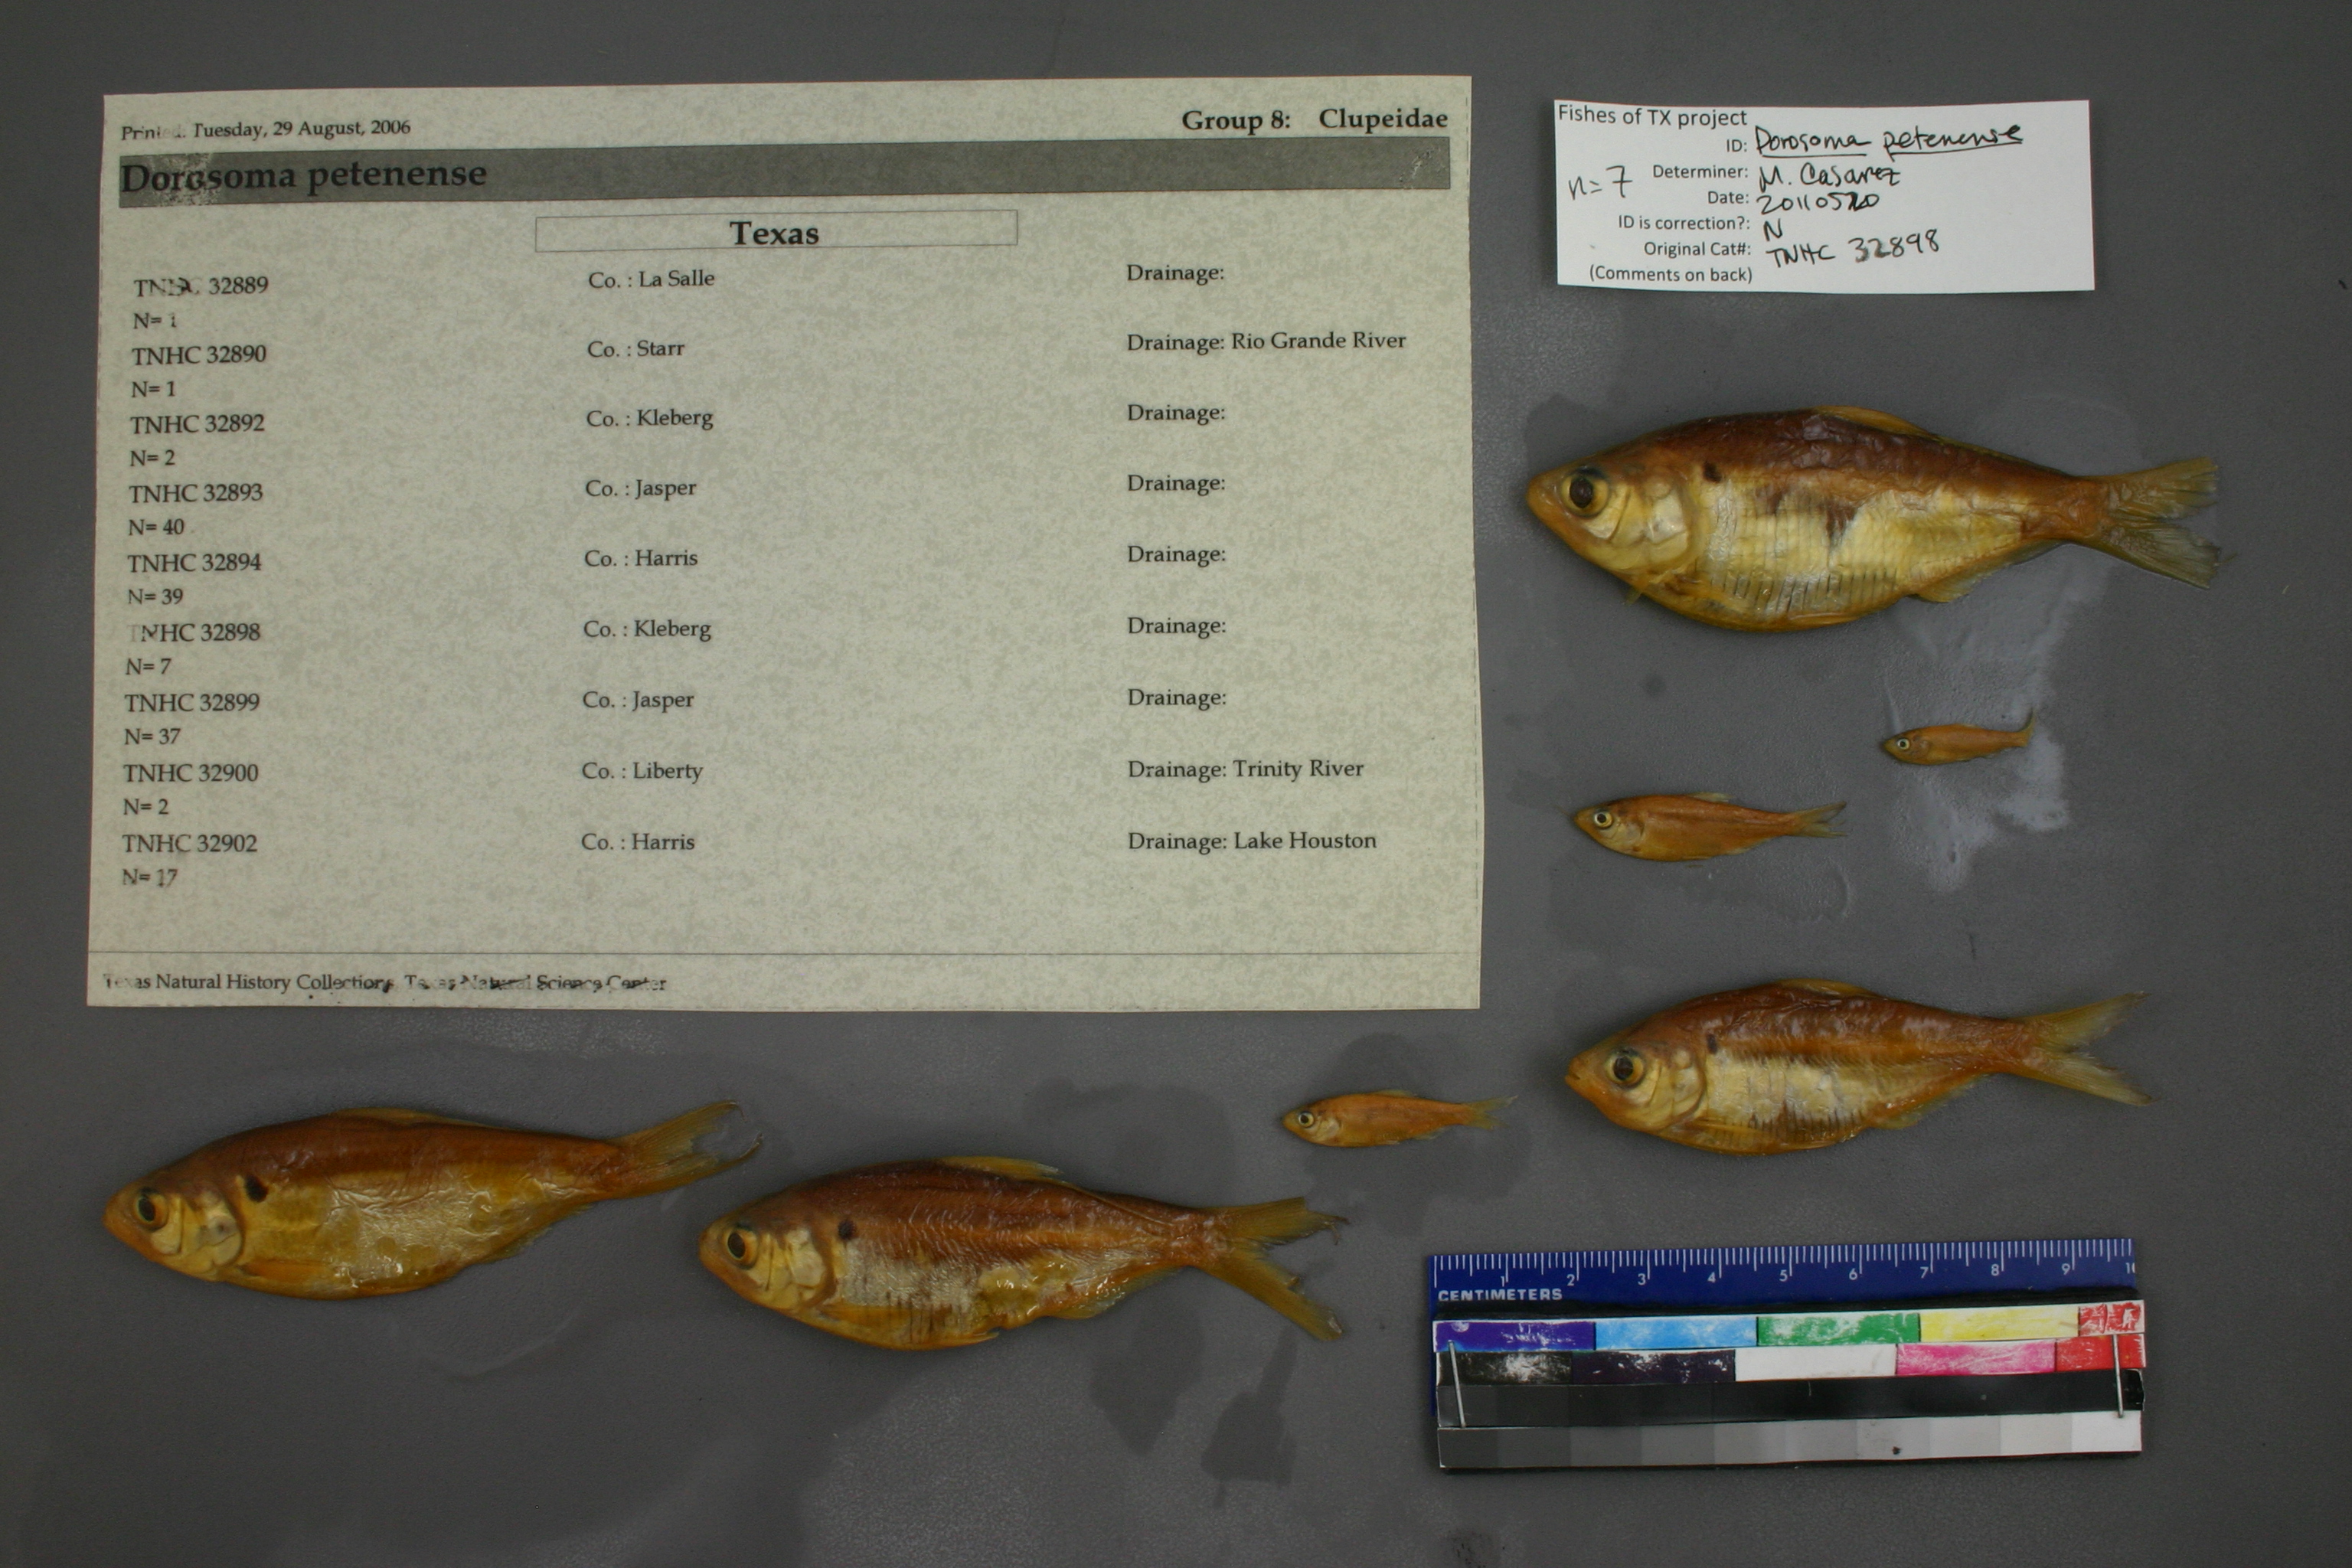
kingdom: Animalia
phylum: Chordata
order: Clupeiformes
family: Clupeidae
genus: Dorosoma
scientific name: Dorosoma petenense
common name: Threadfin shad
